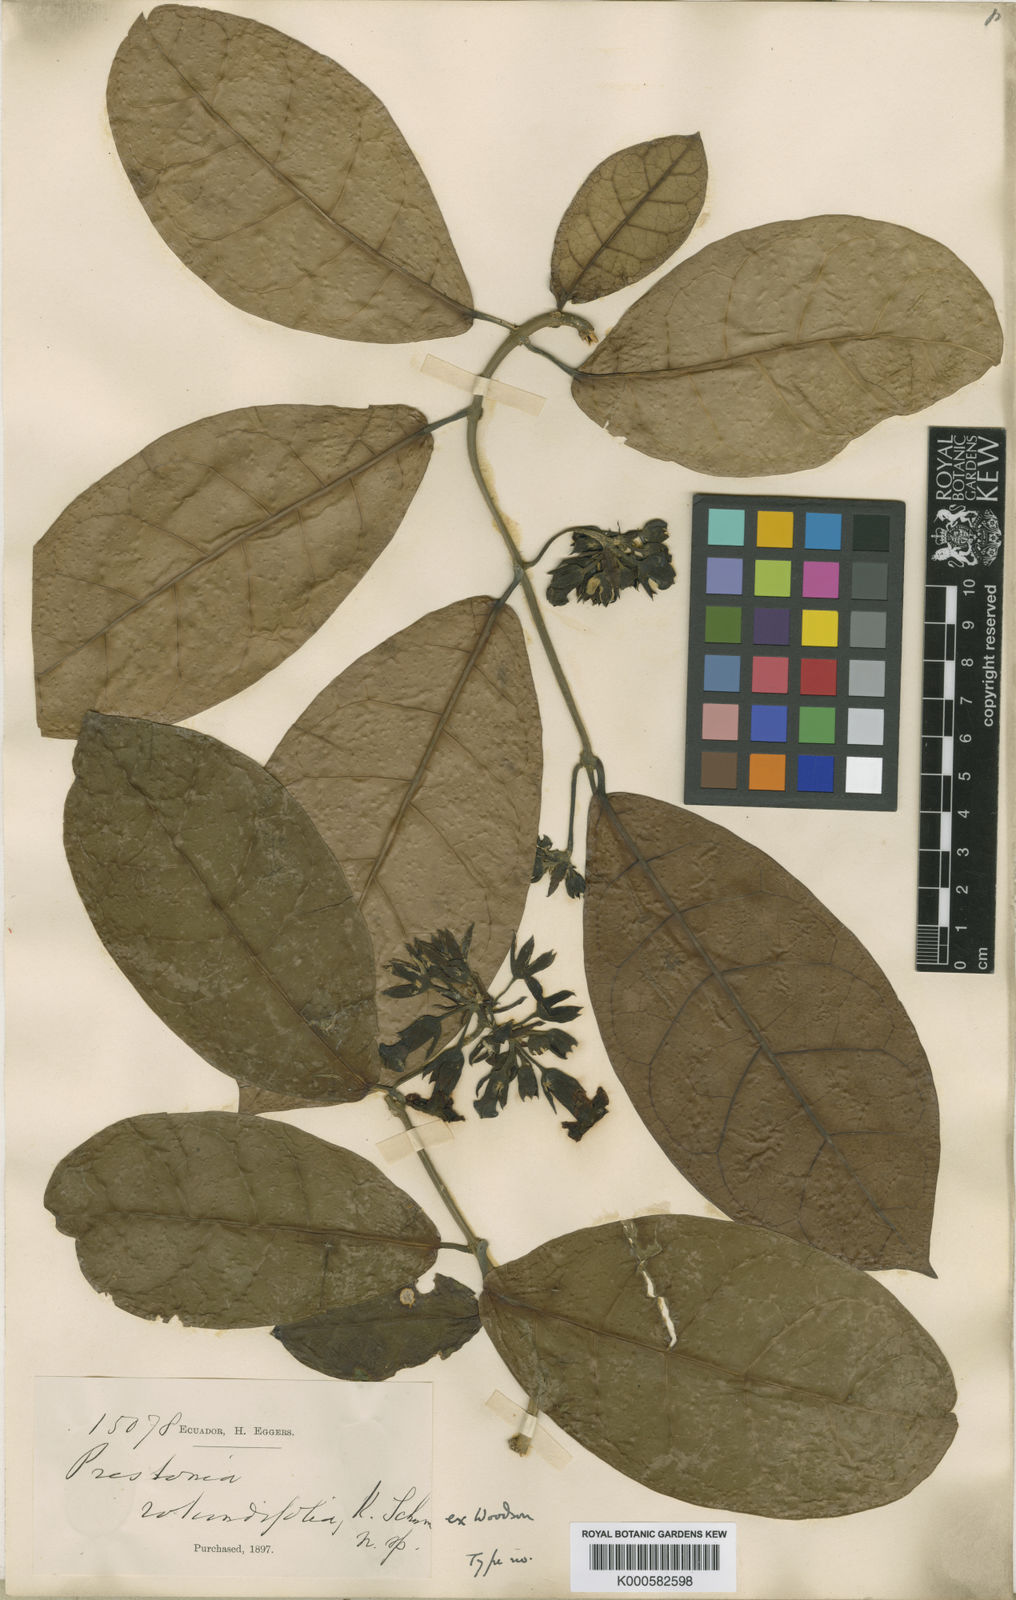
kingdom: Plantae
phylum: Tracheophyta
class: Magnoliopsida
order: Gentianales
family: Apocynaceae
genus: Prestonia
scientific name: Prestonia rotundifolia
